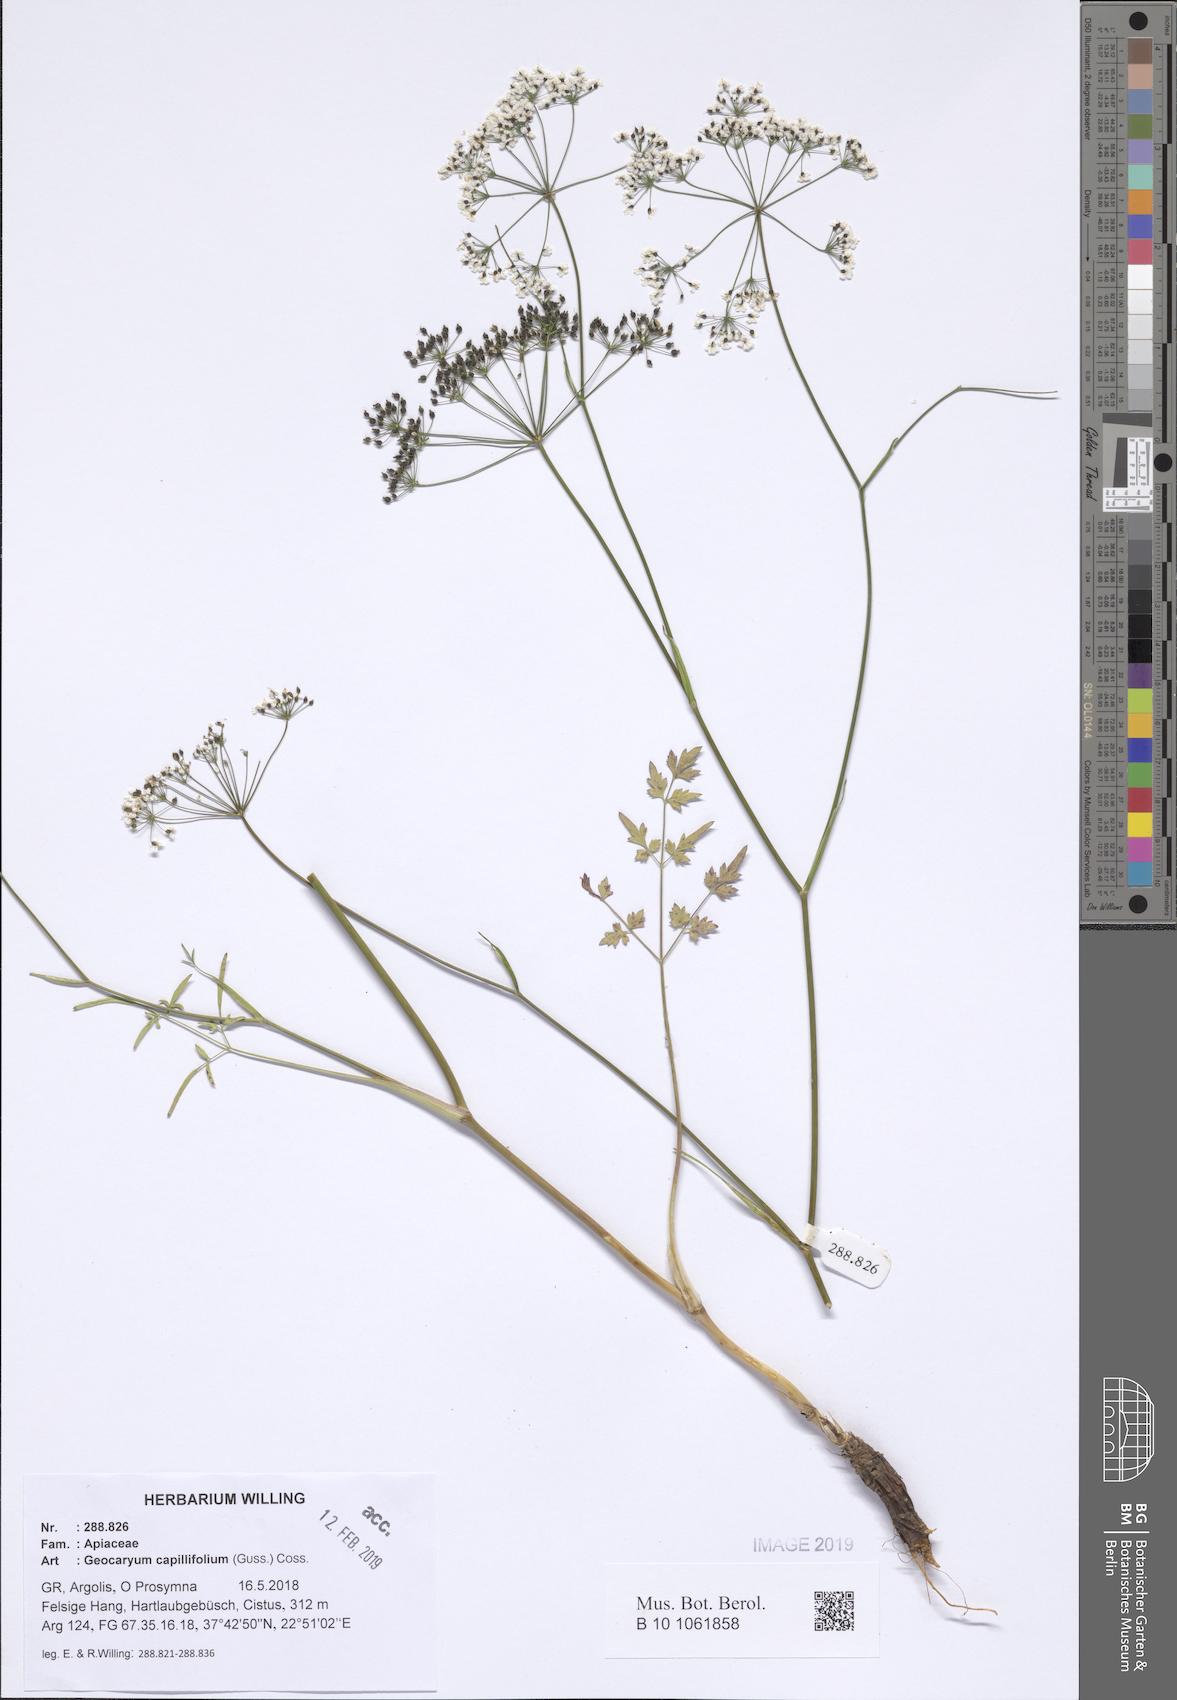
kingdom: Plantae
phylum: Tracheophyta
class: Magnoliopsida
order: Apiales
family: Apiaceae
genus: Geocaryum
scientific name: Geocaryum capillifolium
